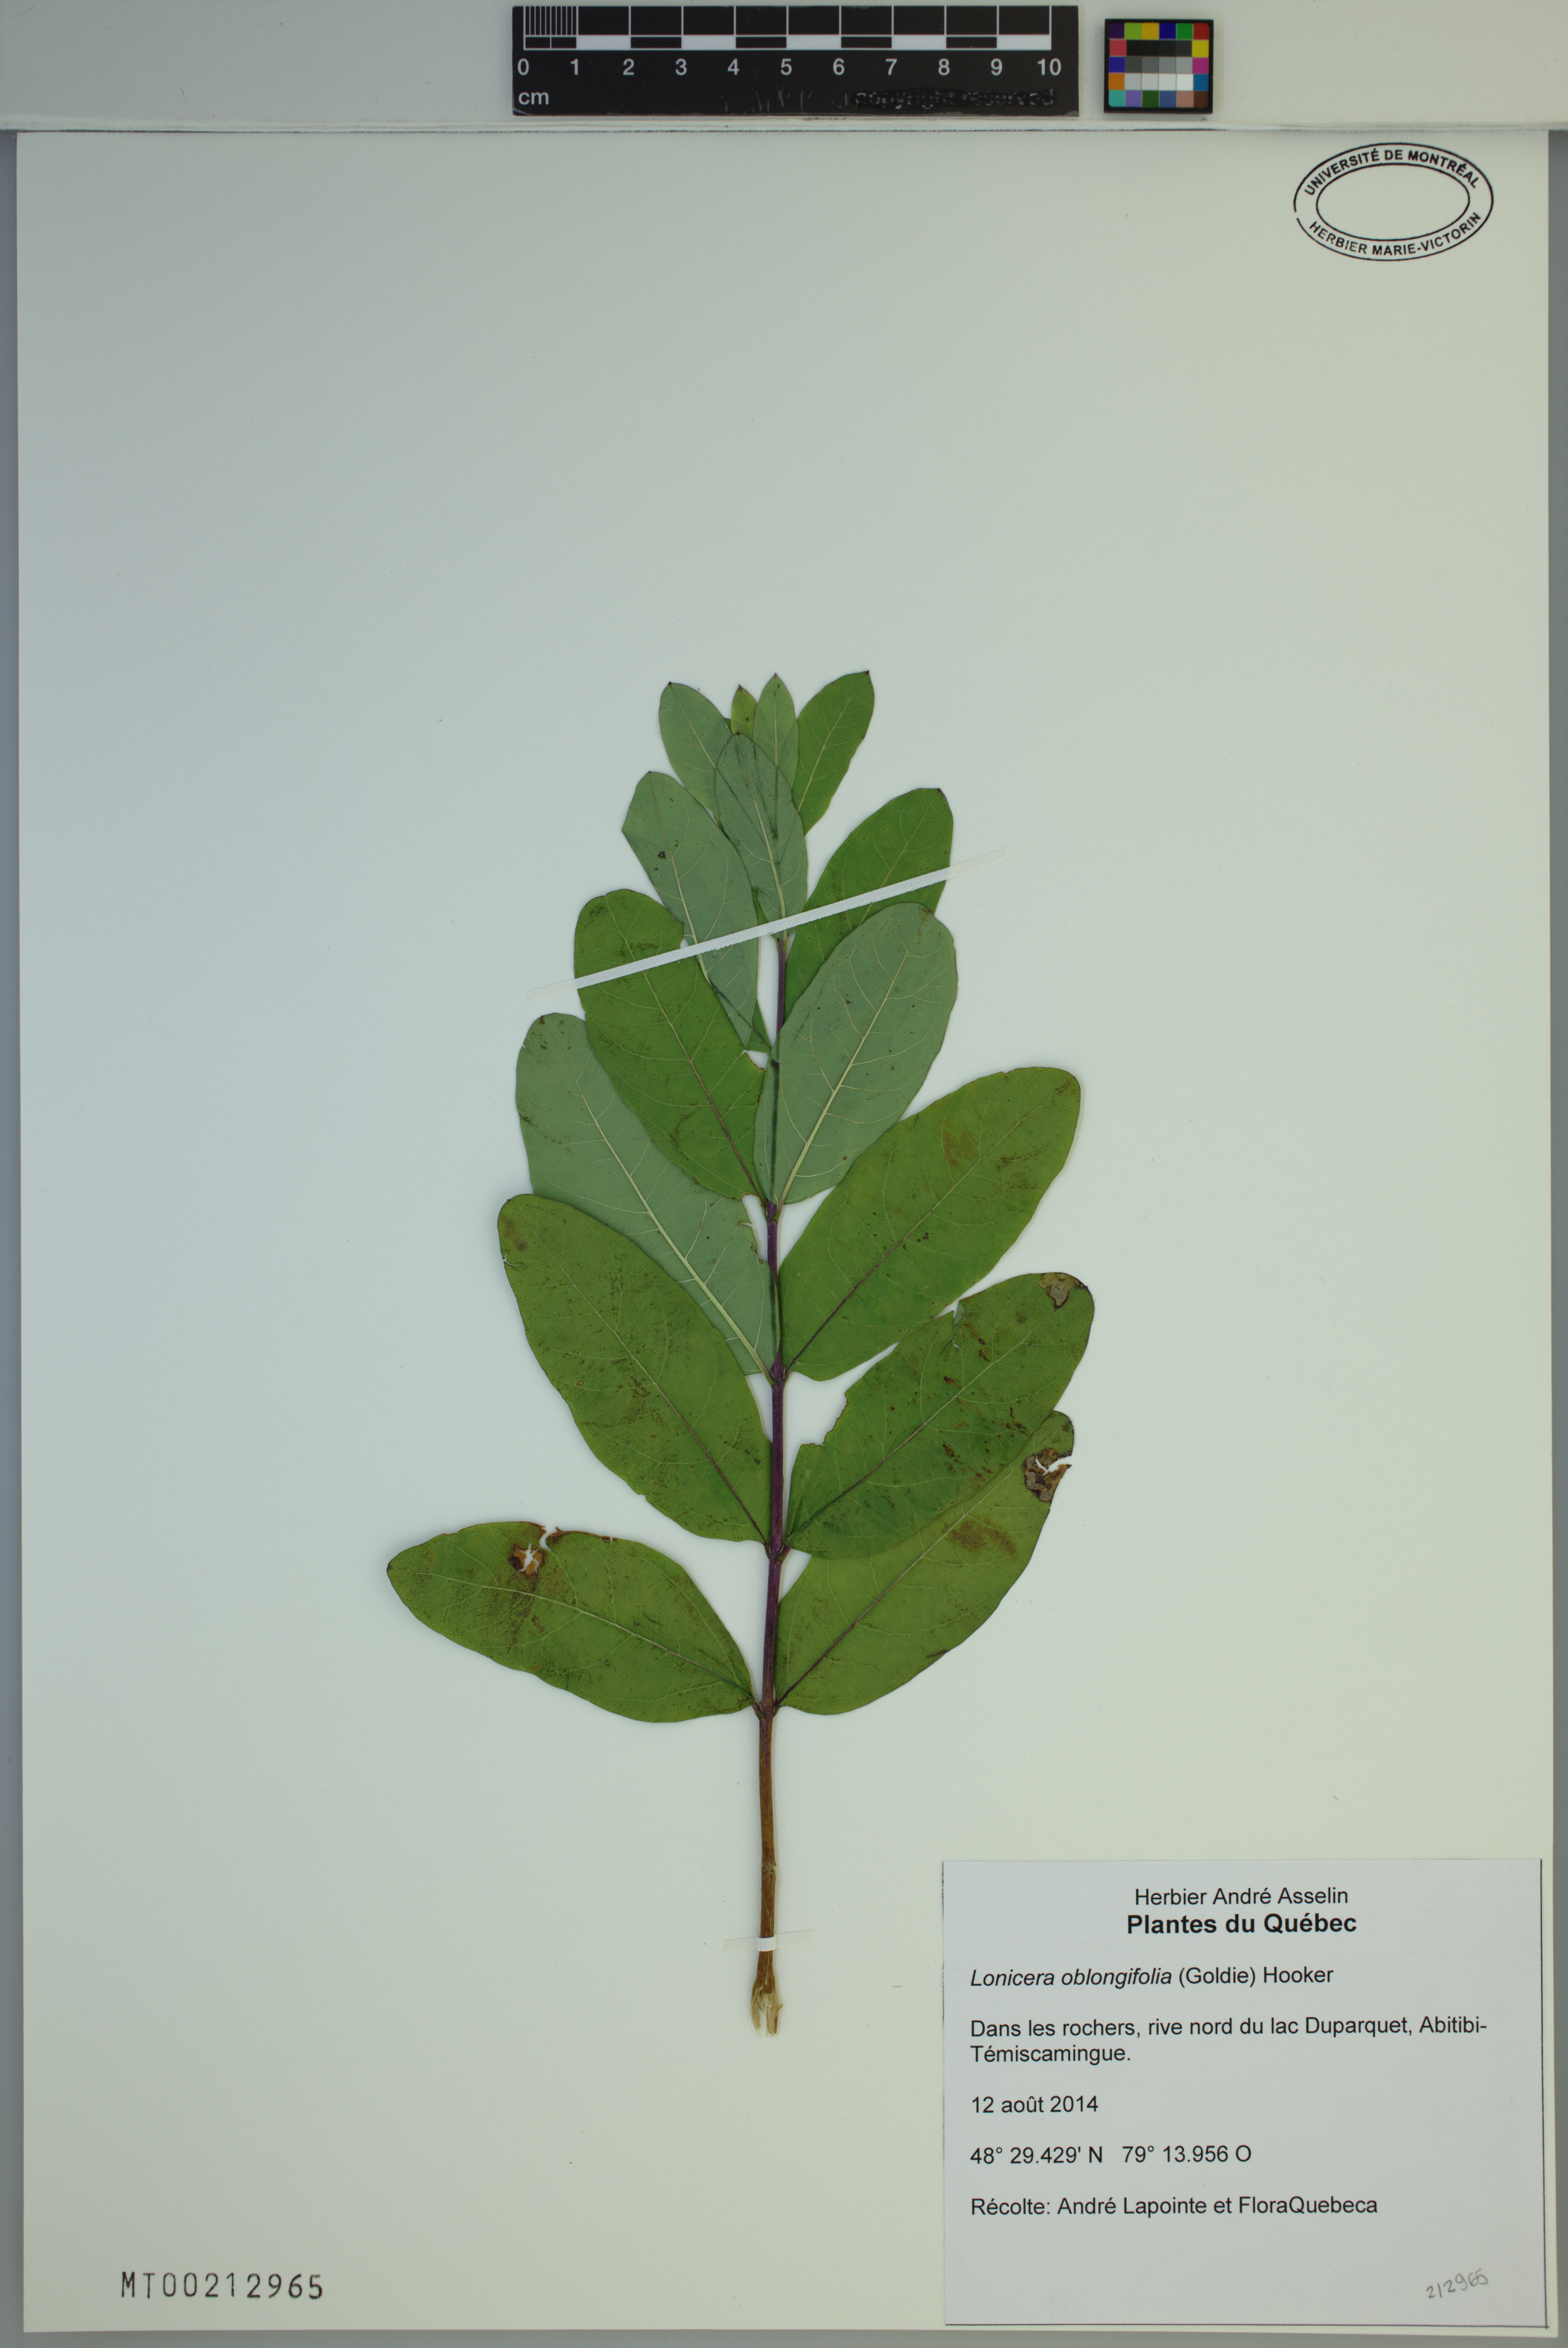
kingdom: Plantae
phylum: Tracheophyta
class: Magnoliopsida
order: Dipsacales
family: Caprifoliaceae
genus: Lonicera
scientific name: Lonicera oblongifolia
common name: Swamp fly honeysuckle
